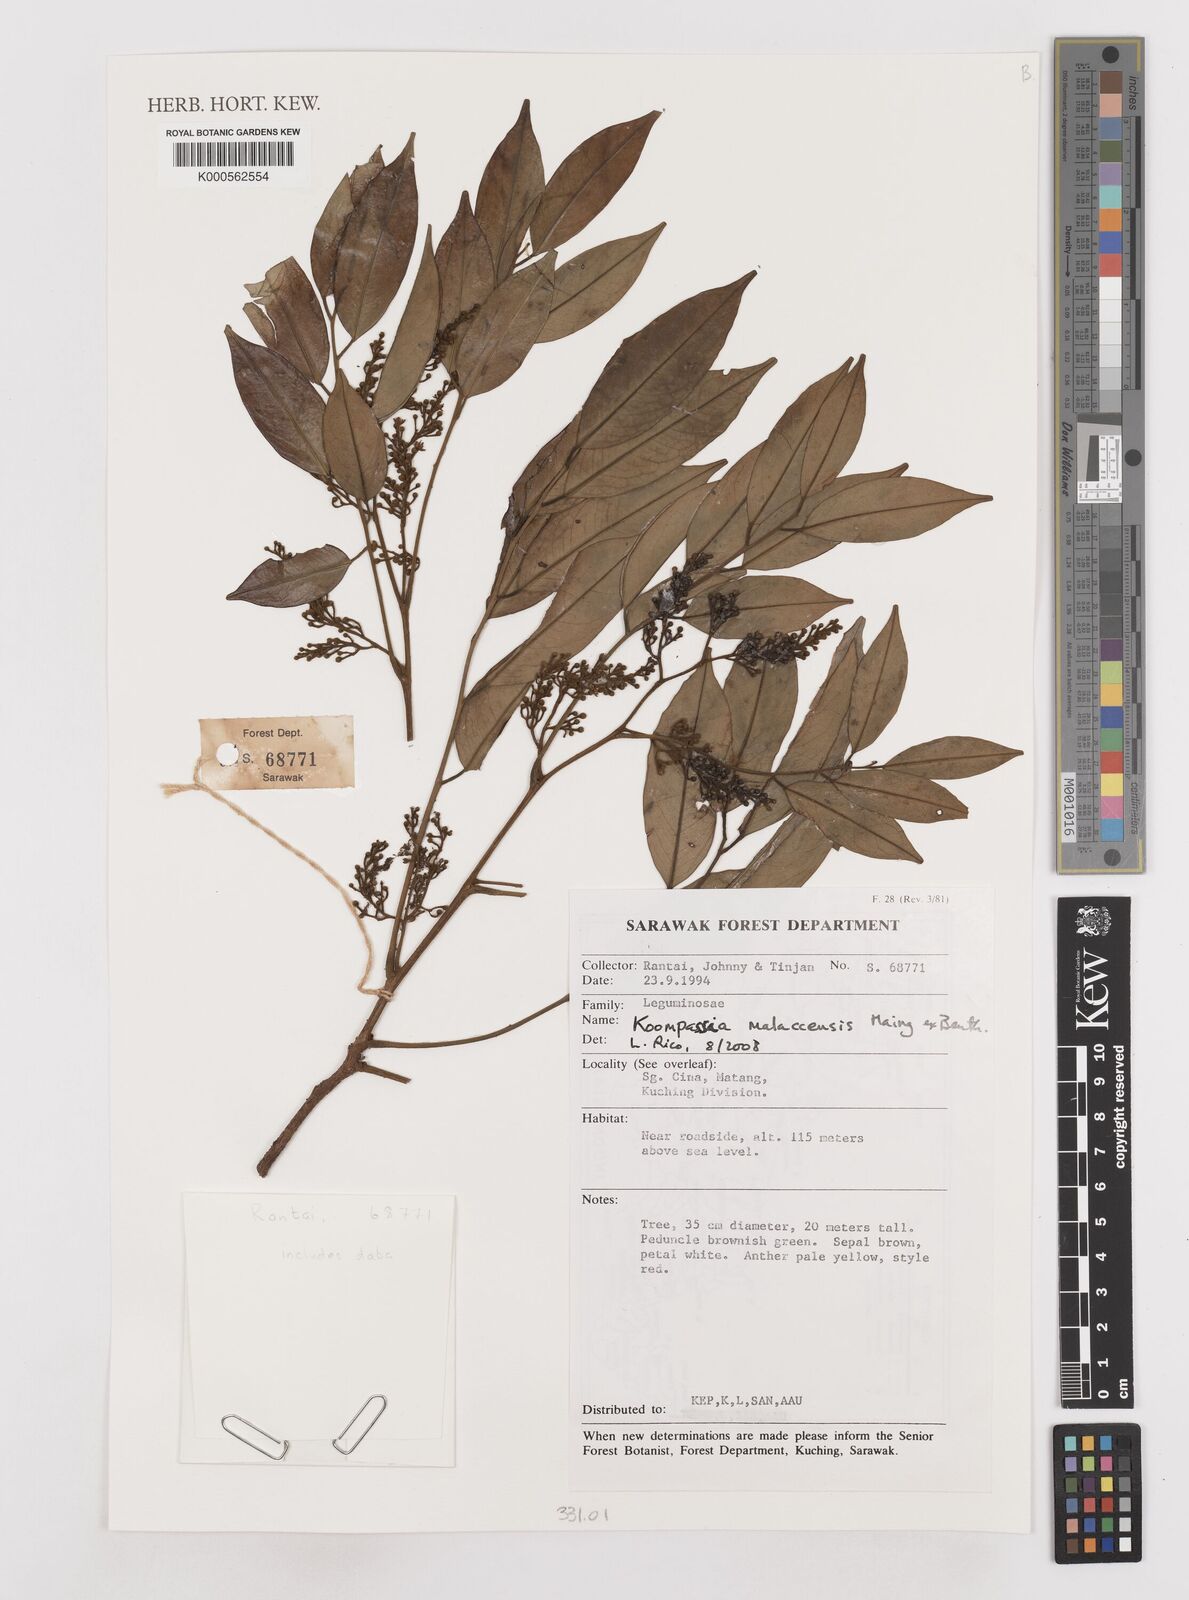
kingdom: Plantae
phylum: Tracheophyta
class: Magnoliopsida
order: Fabales
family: Fabaceae
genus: Koompassia
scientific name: Koompassia malaccensis
